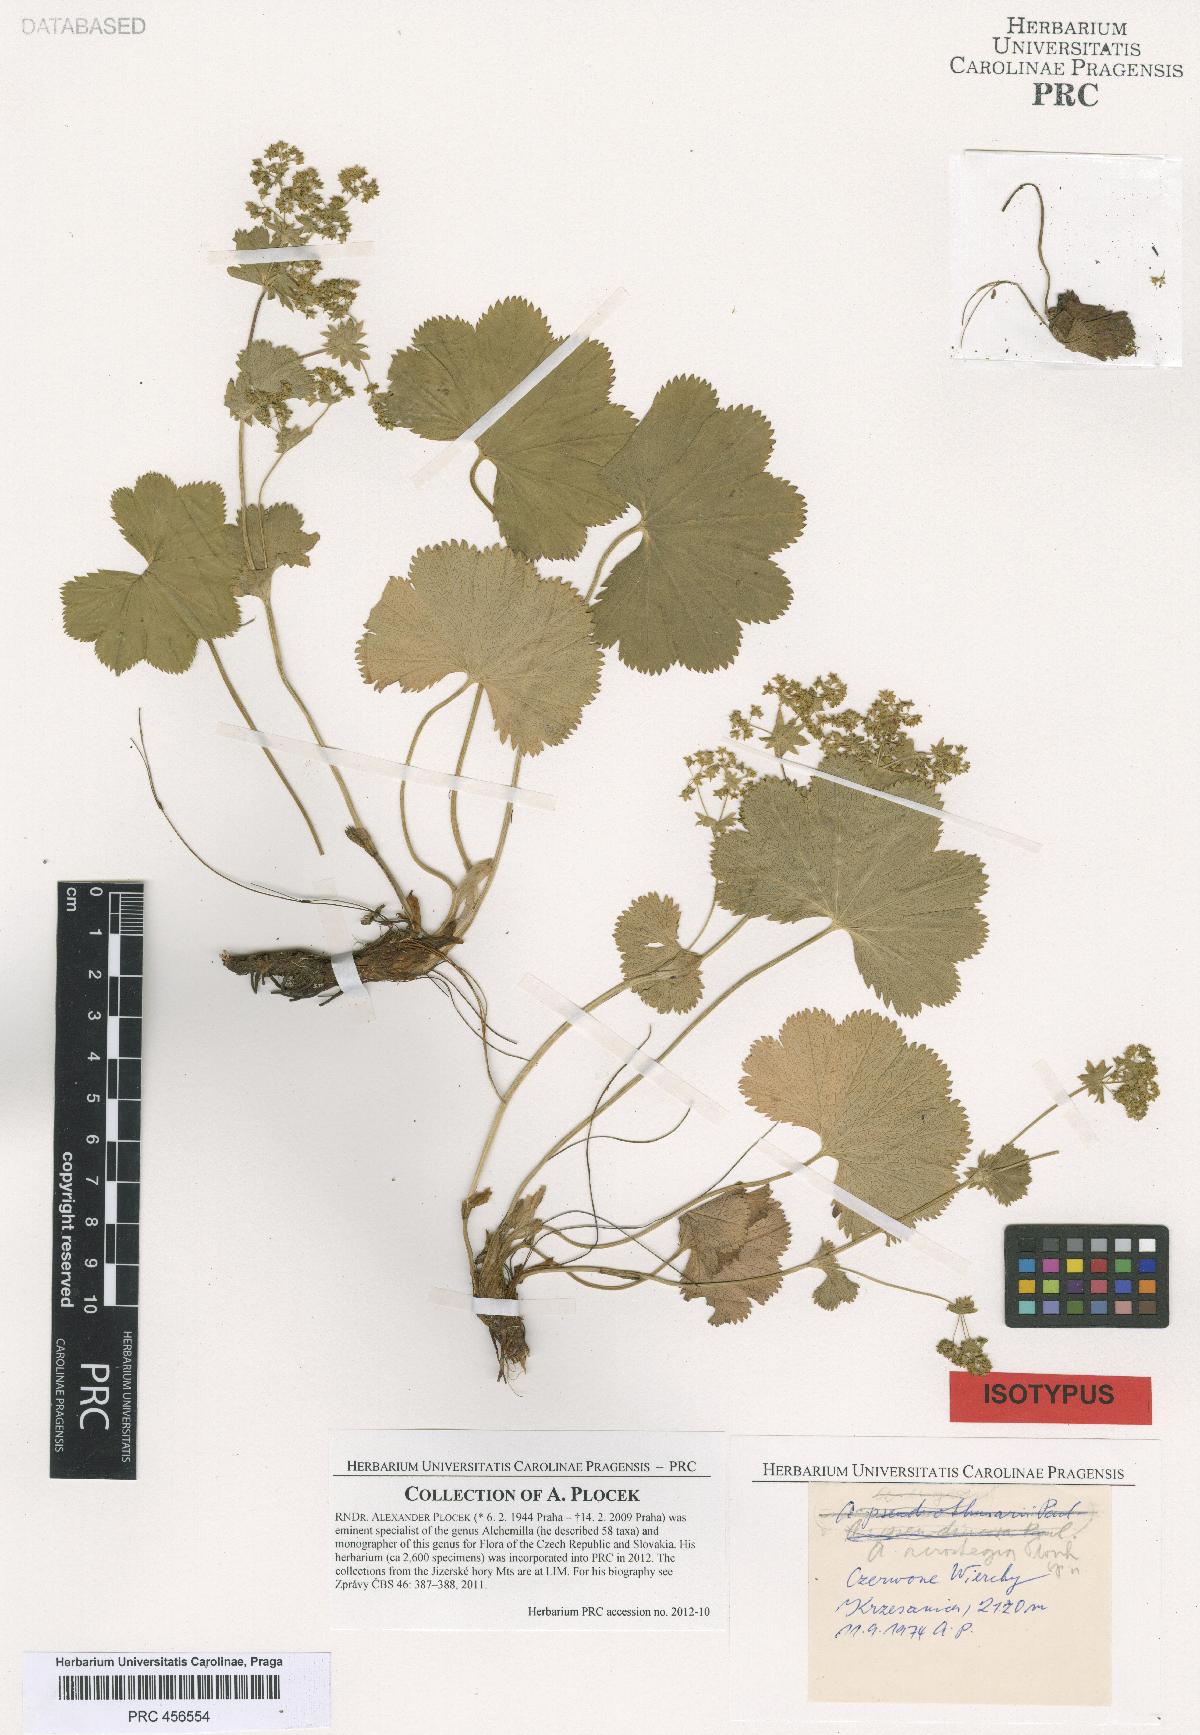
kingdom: Plantae
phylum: Tracheophyta
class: Magnoliopsida
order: Rosales
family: Rosaceae
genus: Alchemilla
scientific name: Alchemilla acrostegia
